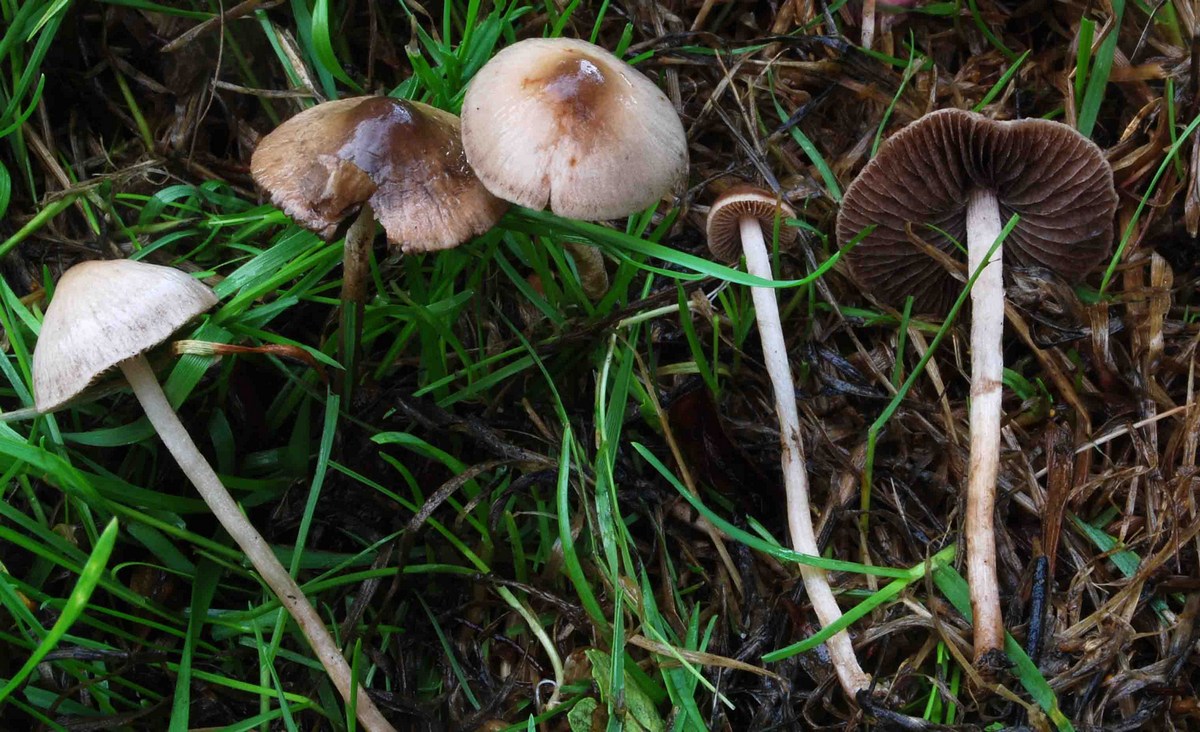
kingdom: Fungi
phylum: Basidiomycota
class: Agaricomycetes
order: Agaricales
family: Bolbitiaceae
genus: Panaeolina
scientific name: Panaeolina foenisecii
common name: høslætsvamp
